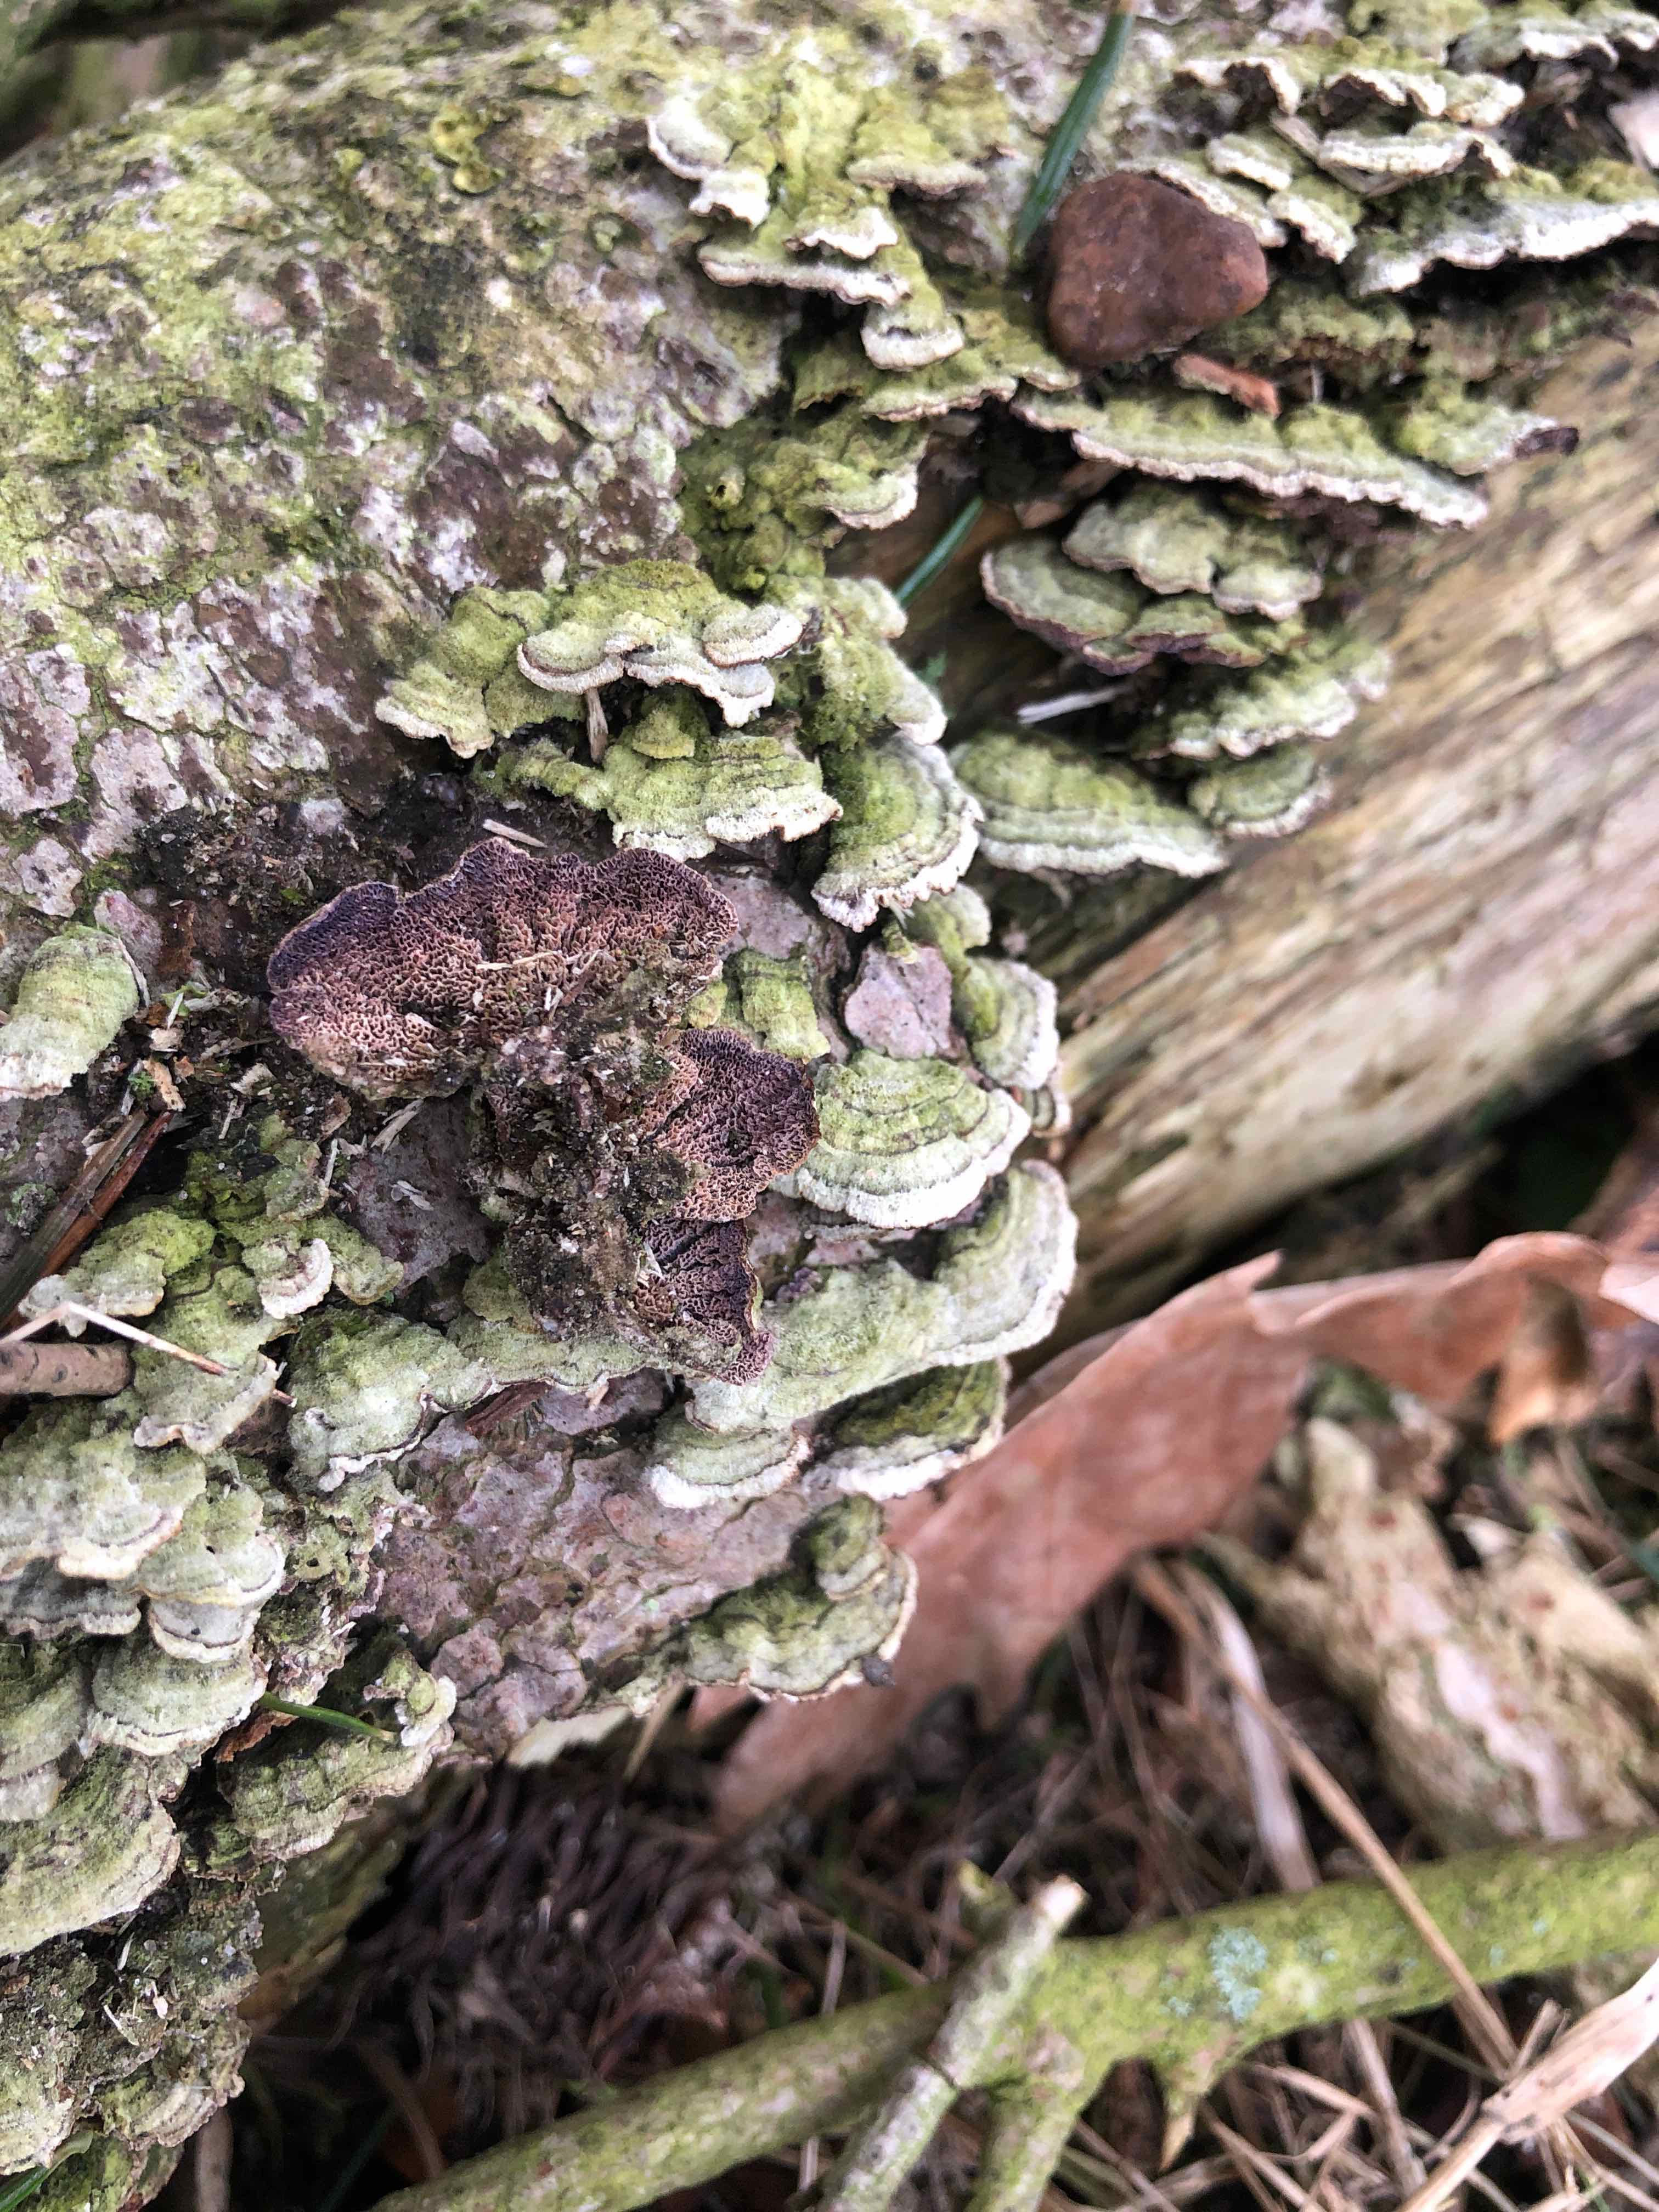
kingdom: Fungi
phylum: Basidiomycota
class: Agaricomycetes
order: Hymenochaetales
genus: Trichaptum
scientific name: Trichaptum abietinum
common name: almindelig violporesvamp
